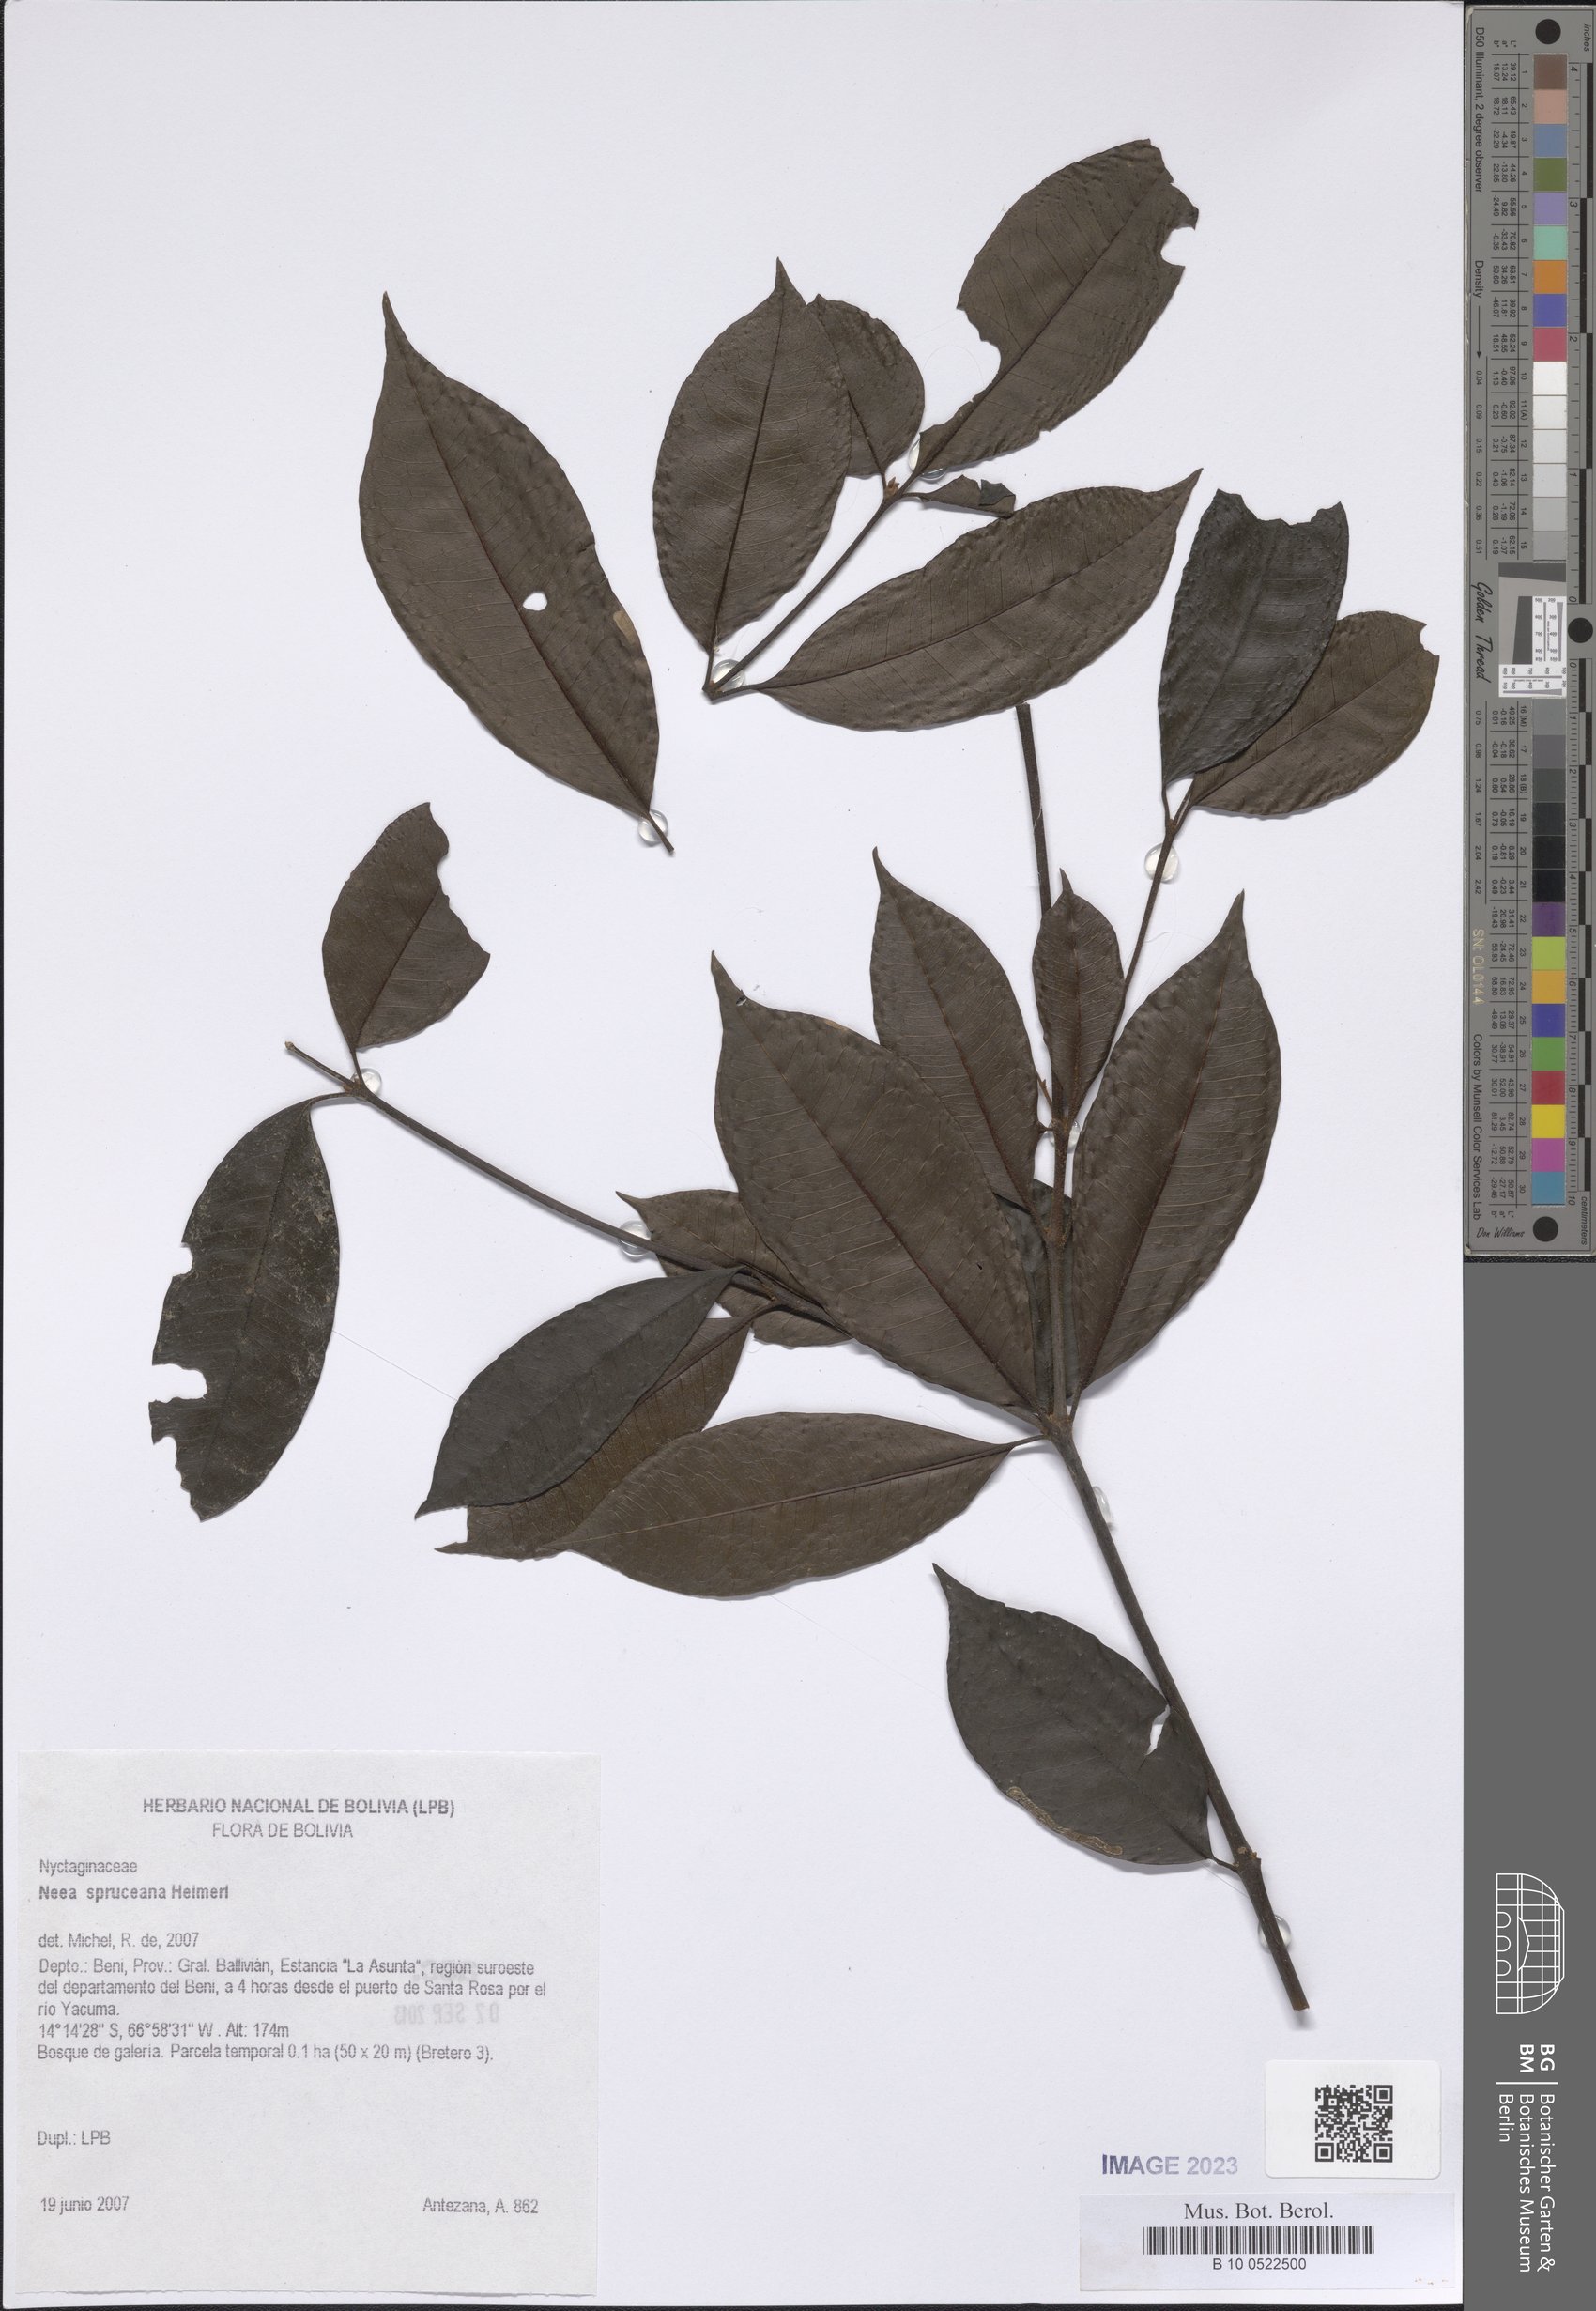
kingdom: Plantae
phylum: Tracheophyta
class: Magnoliopsida
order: Caryophyllales
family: Nyctaginaceae
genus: Neea
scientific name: Neea spruceana
